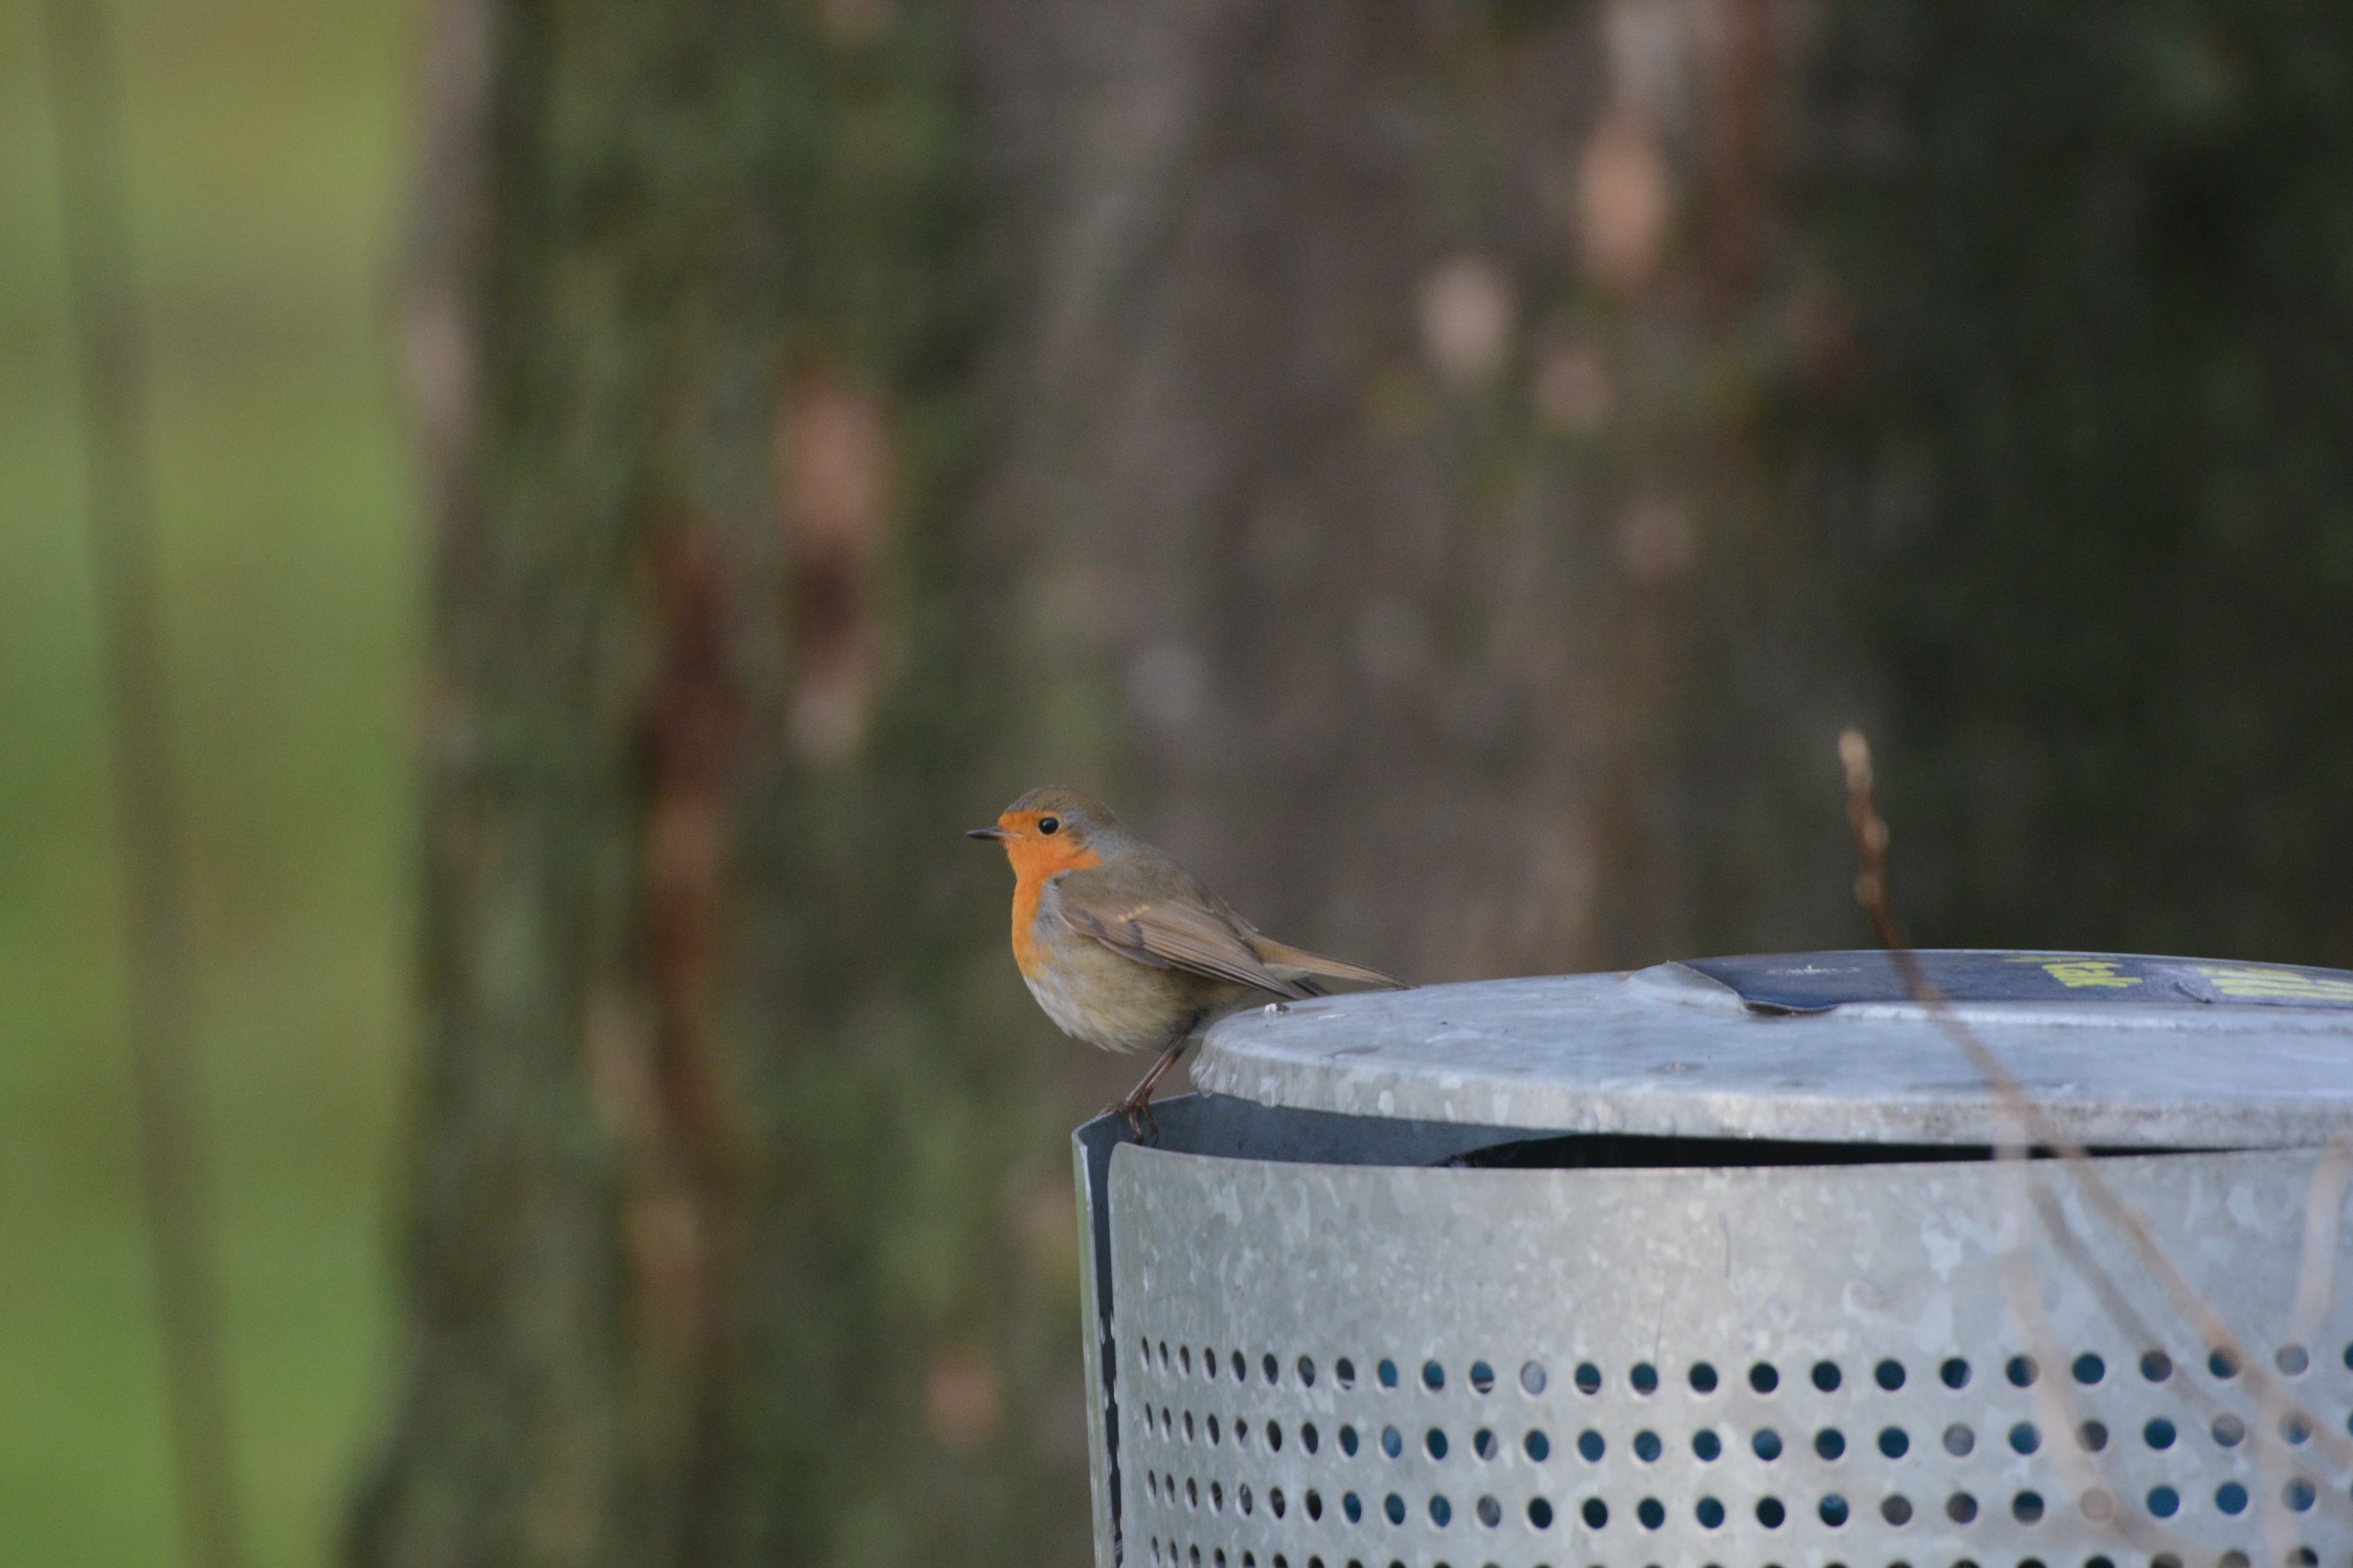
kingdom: Animalia
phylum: Chordata
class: Aves
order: Passeriformes
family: Muscicapidae
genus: Erithacus
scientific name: Erithacus rubecula
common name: Rødhals/rødkælk
